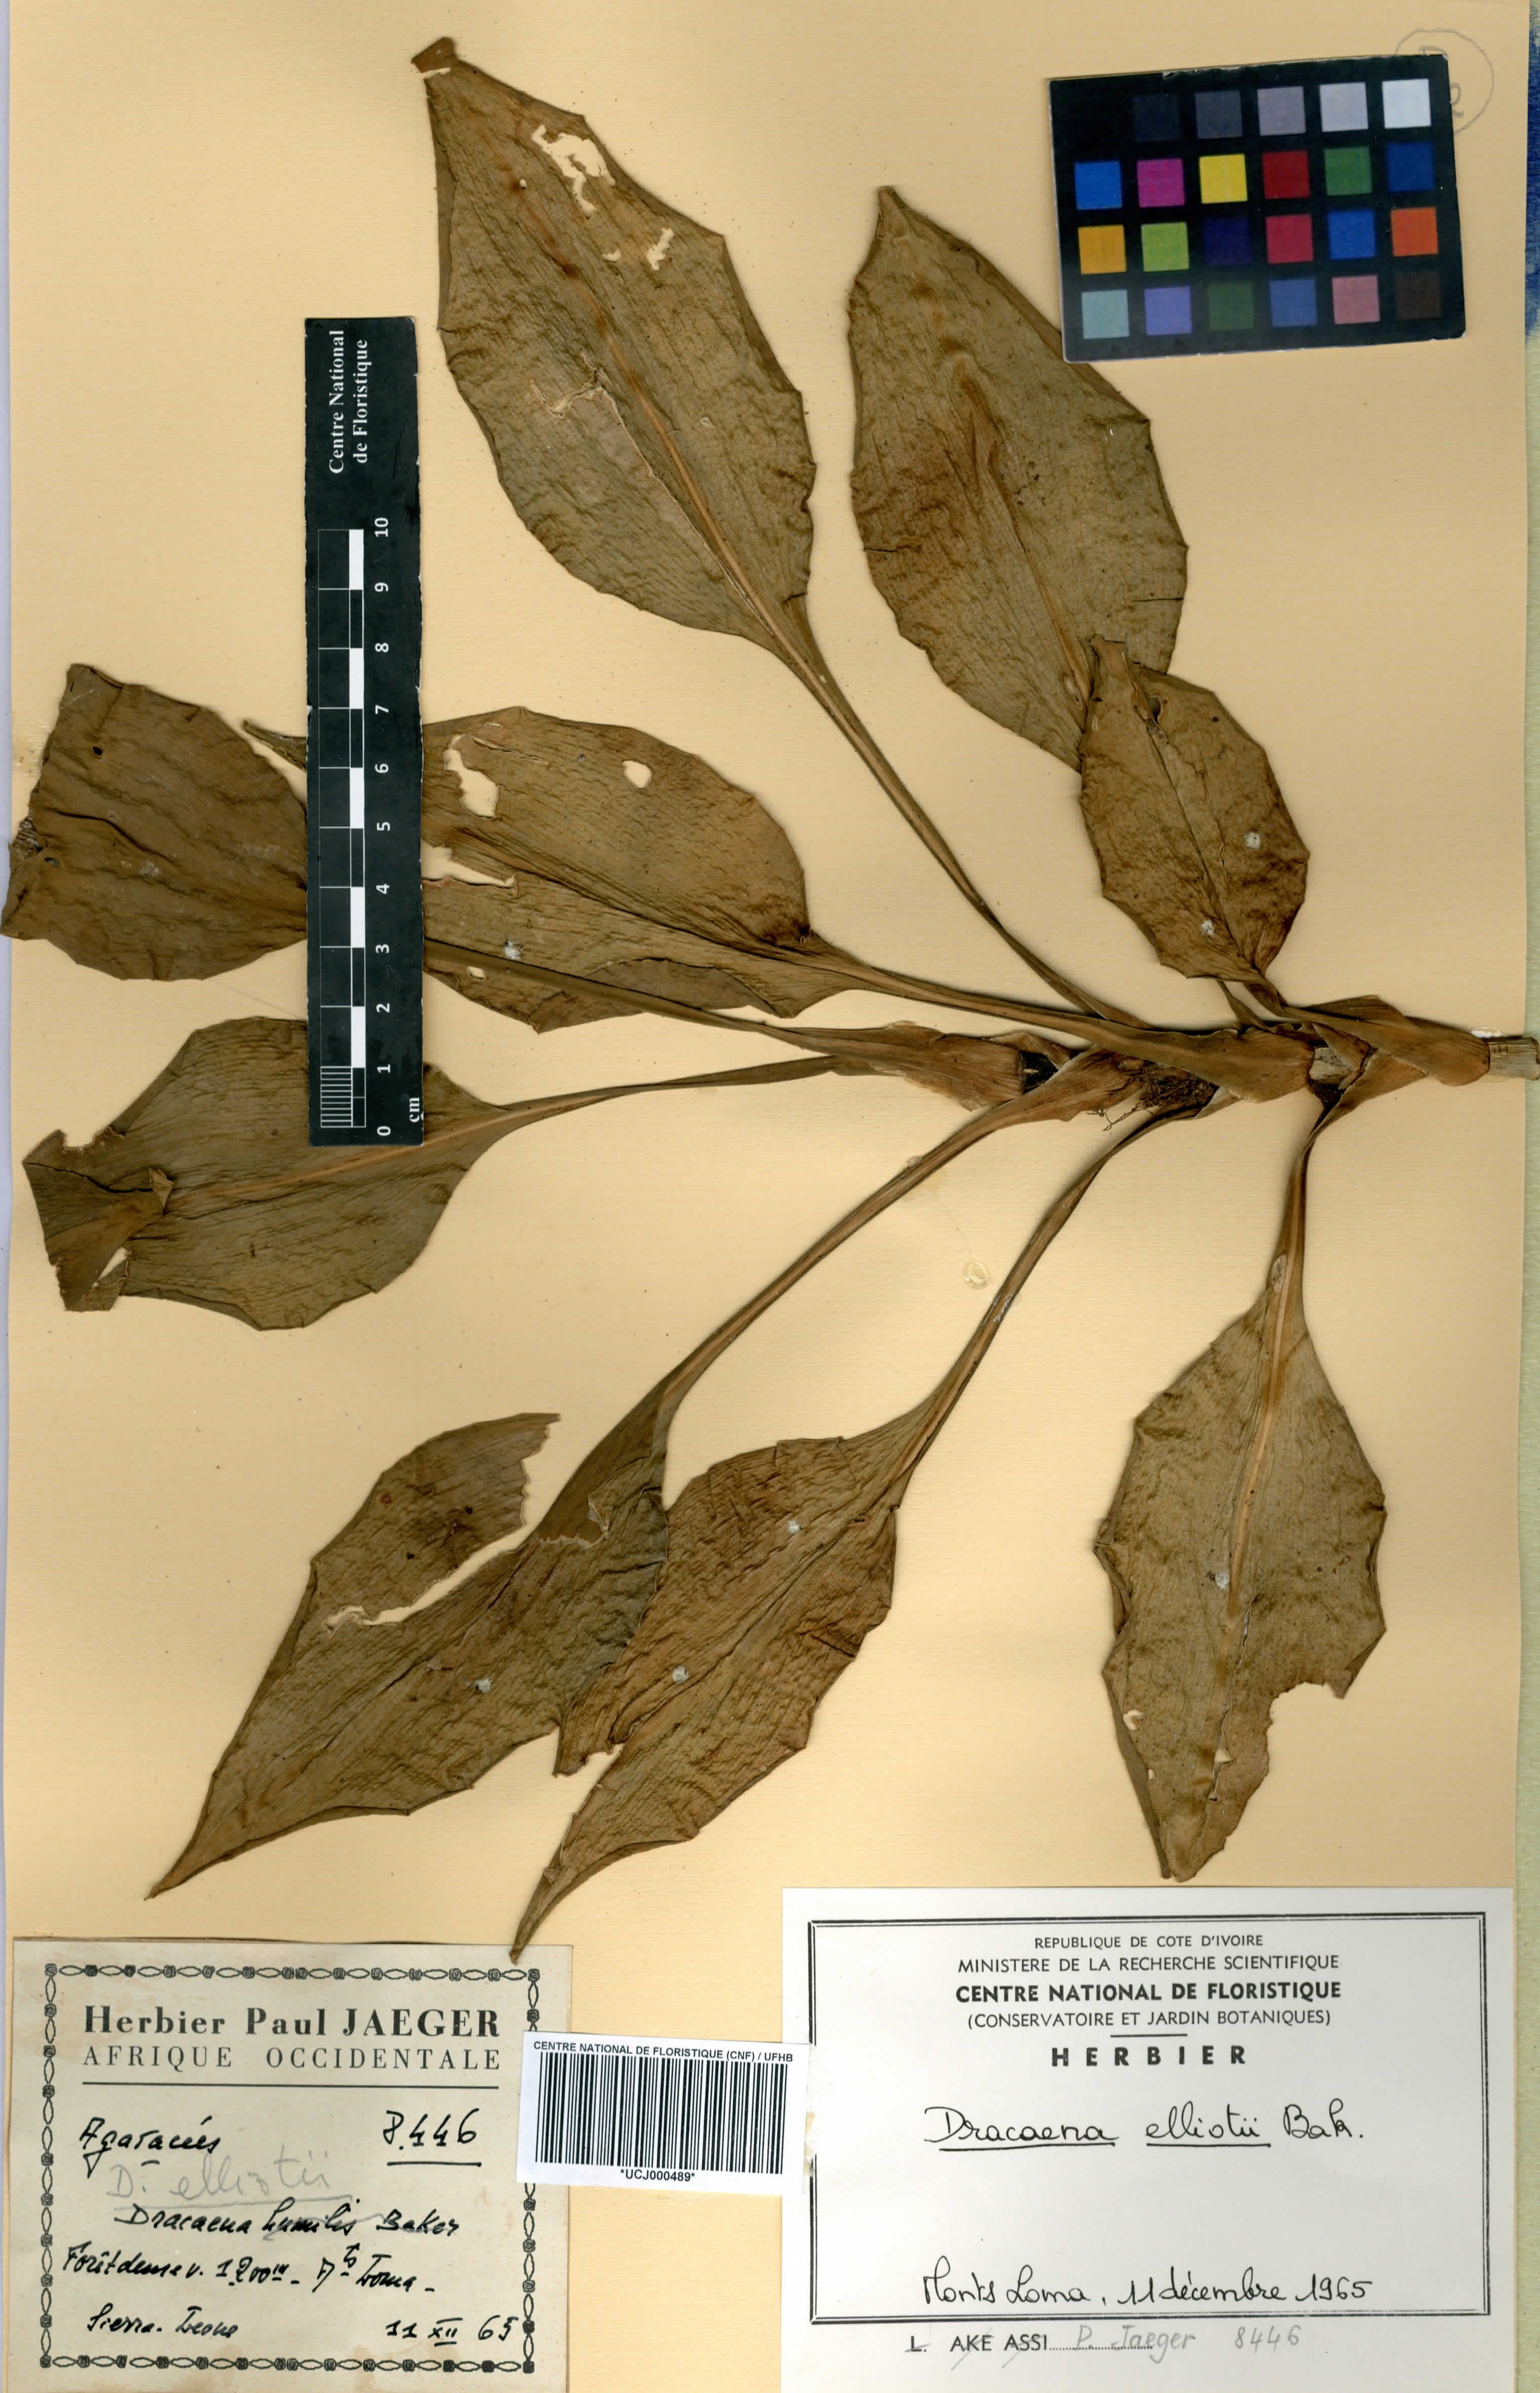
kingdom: Plantae
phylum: Tracheophyta
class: Liliopsida
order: Asparagales
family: Asparagaceae
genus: Dracaena
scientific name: Dracaena cristula
